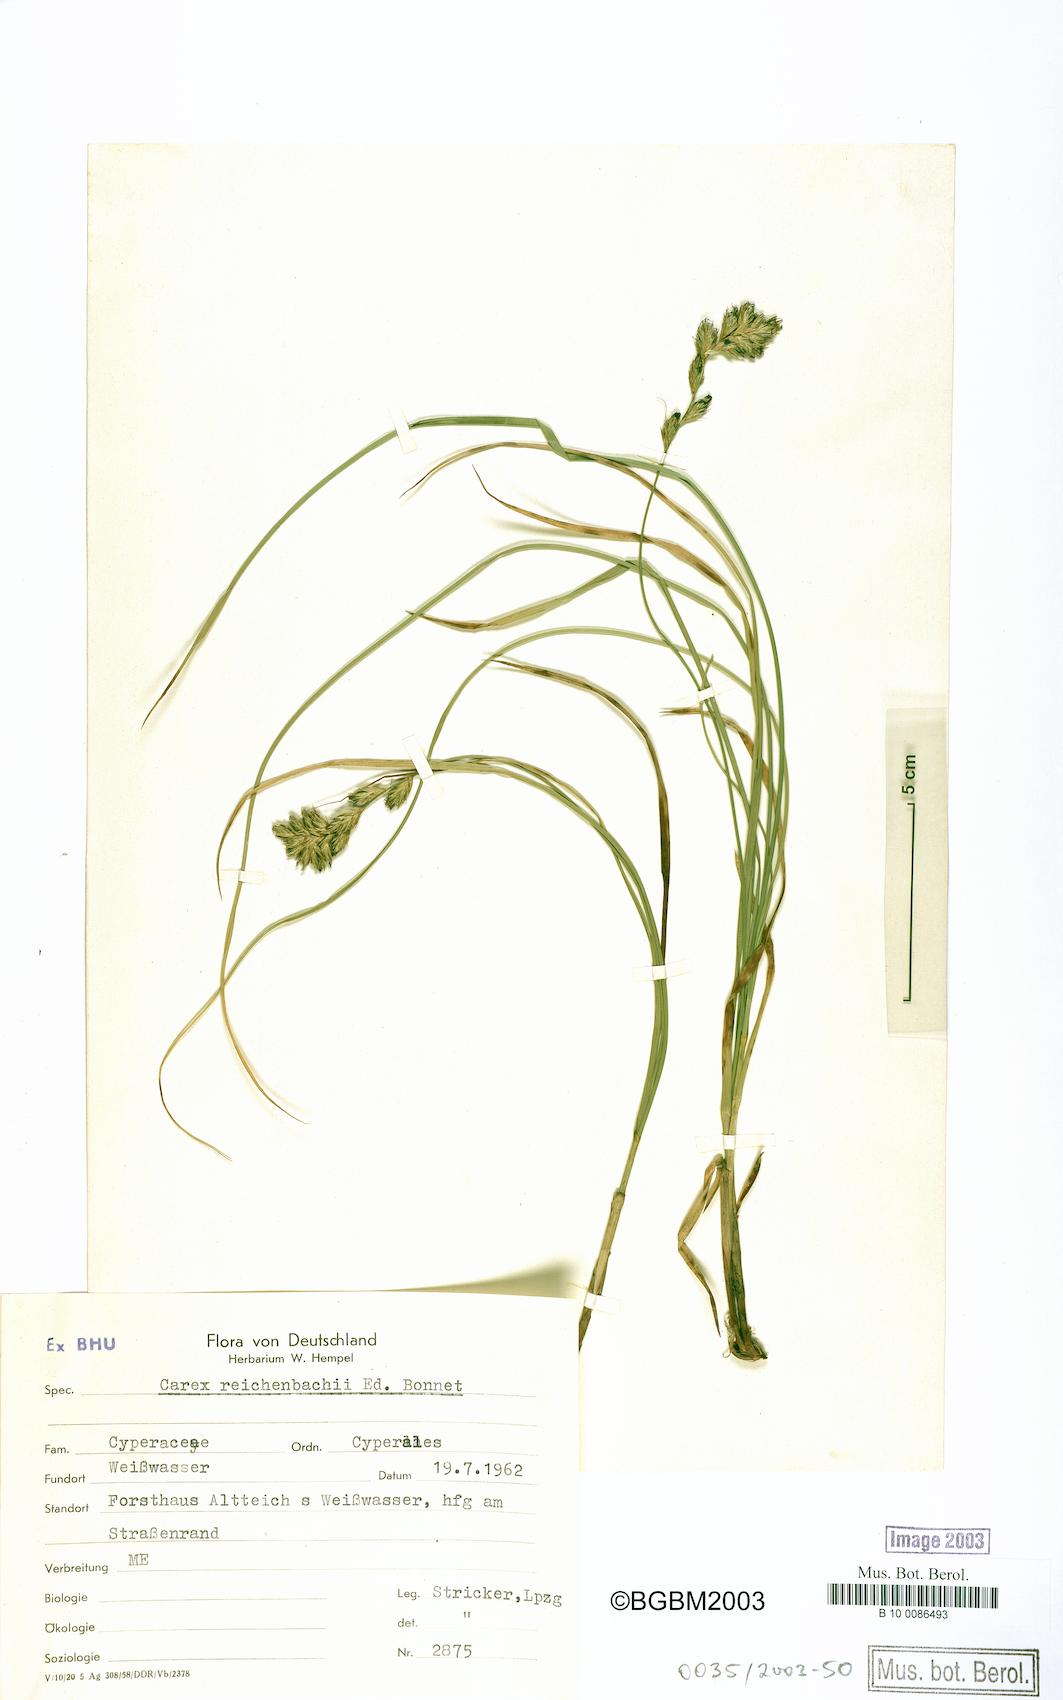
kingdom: Plantae
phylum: Tracheophyta
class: Liliopsida
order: Poales
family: Cyperaceae
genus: Carex
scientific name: Carex reichenbachii
